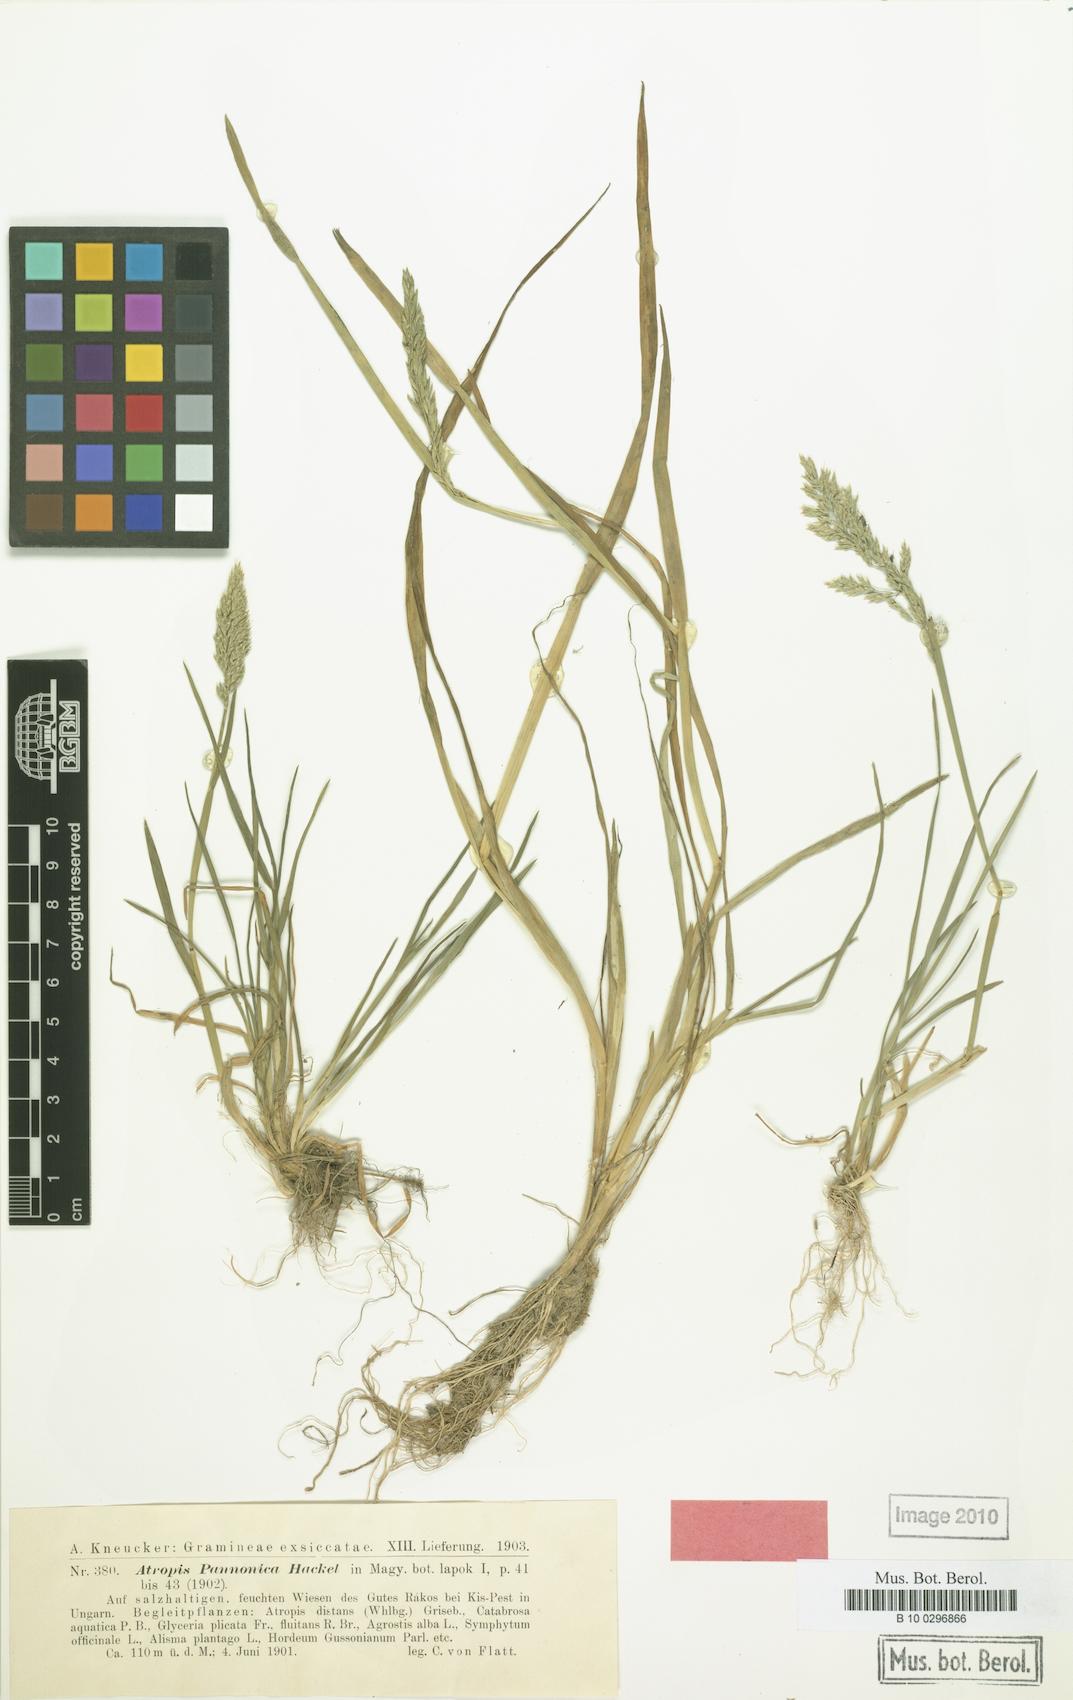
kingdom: Plantae
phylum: Tracheophyta
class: Liliopsida
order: Poales
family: Poaceae
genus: Puccinellia
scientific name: Puccinellia pannonica
